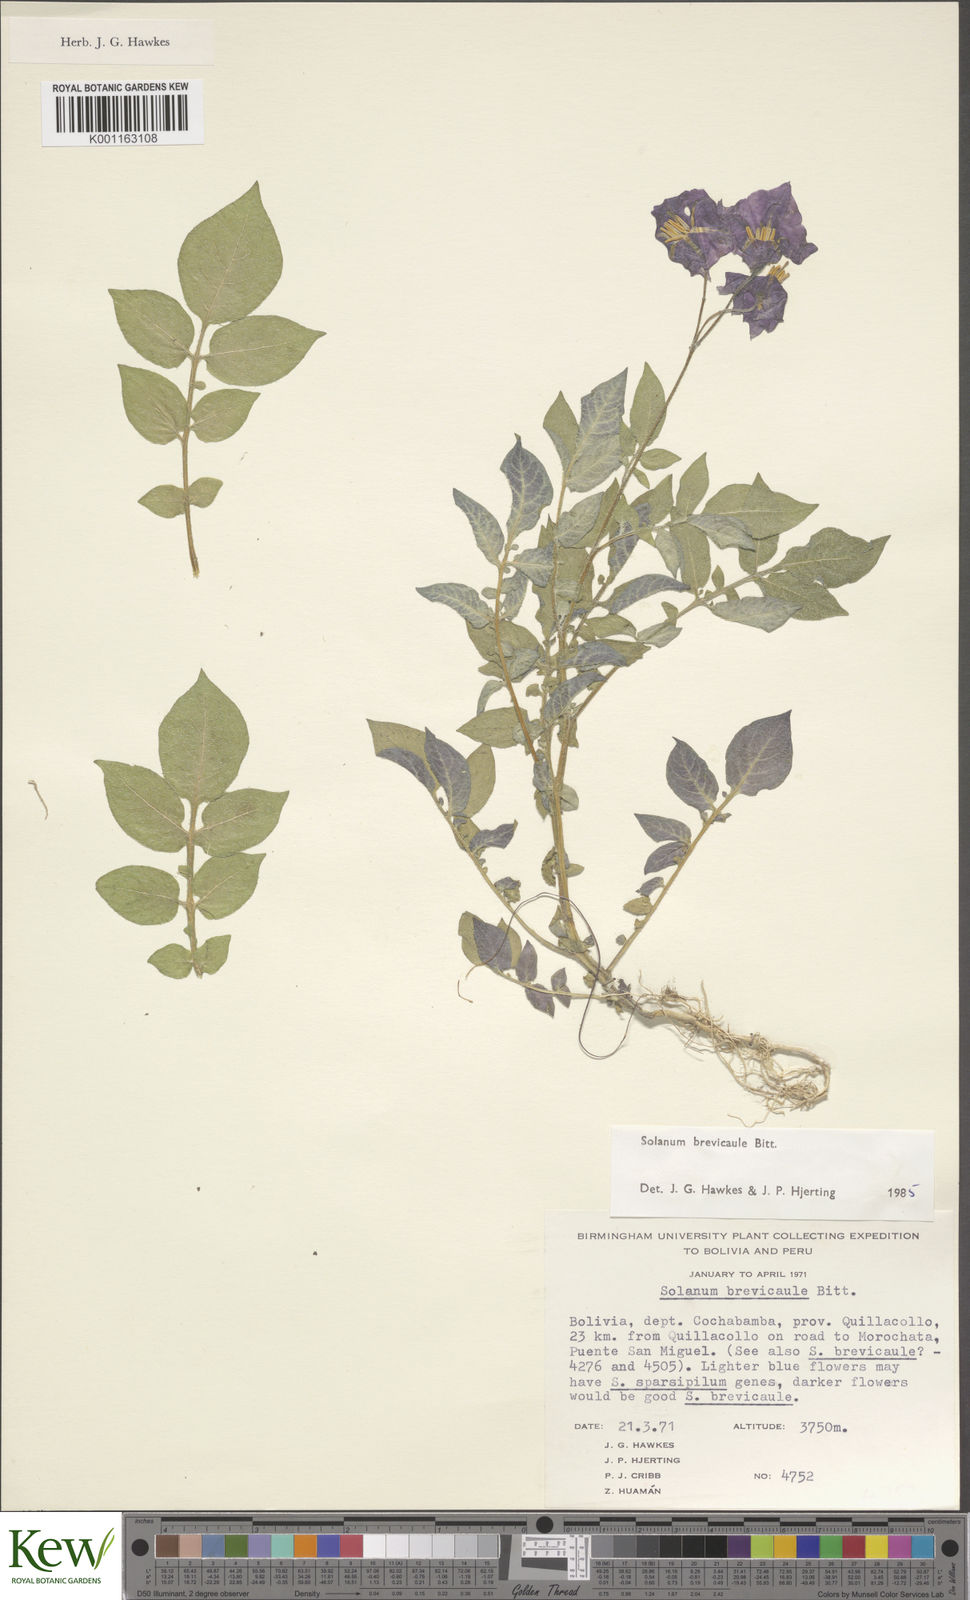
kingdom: Plantae
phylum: Tracheophyta
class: Magnoliopsida
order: Solanales
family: Solanaceae
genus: Solanum
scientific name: Solanum brevicaule
